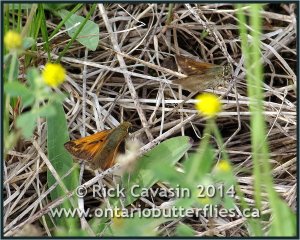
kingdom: Animalia
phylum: Arthropoda
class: Insecta
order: Lepidoptera
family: Hesperiidae
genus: Hesperia
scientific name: Hesperia sassacus
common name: Sassacus Skipper
